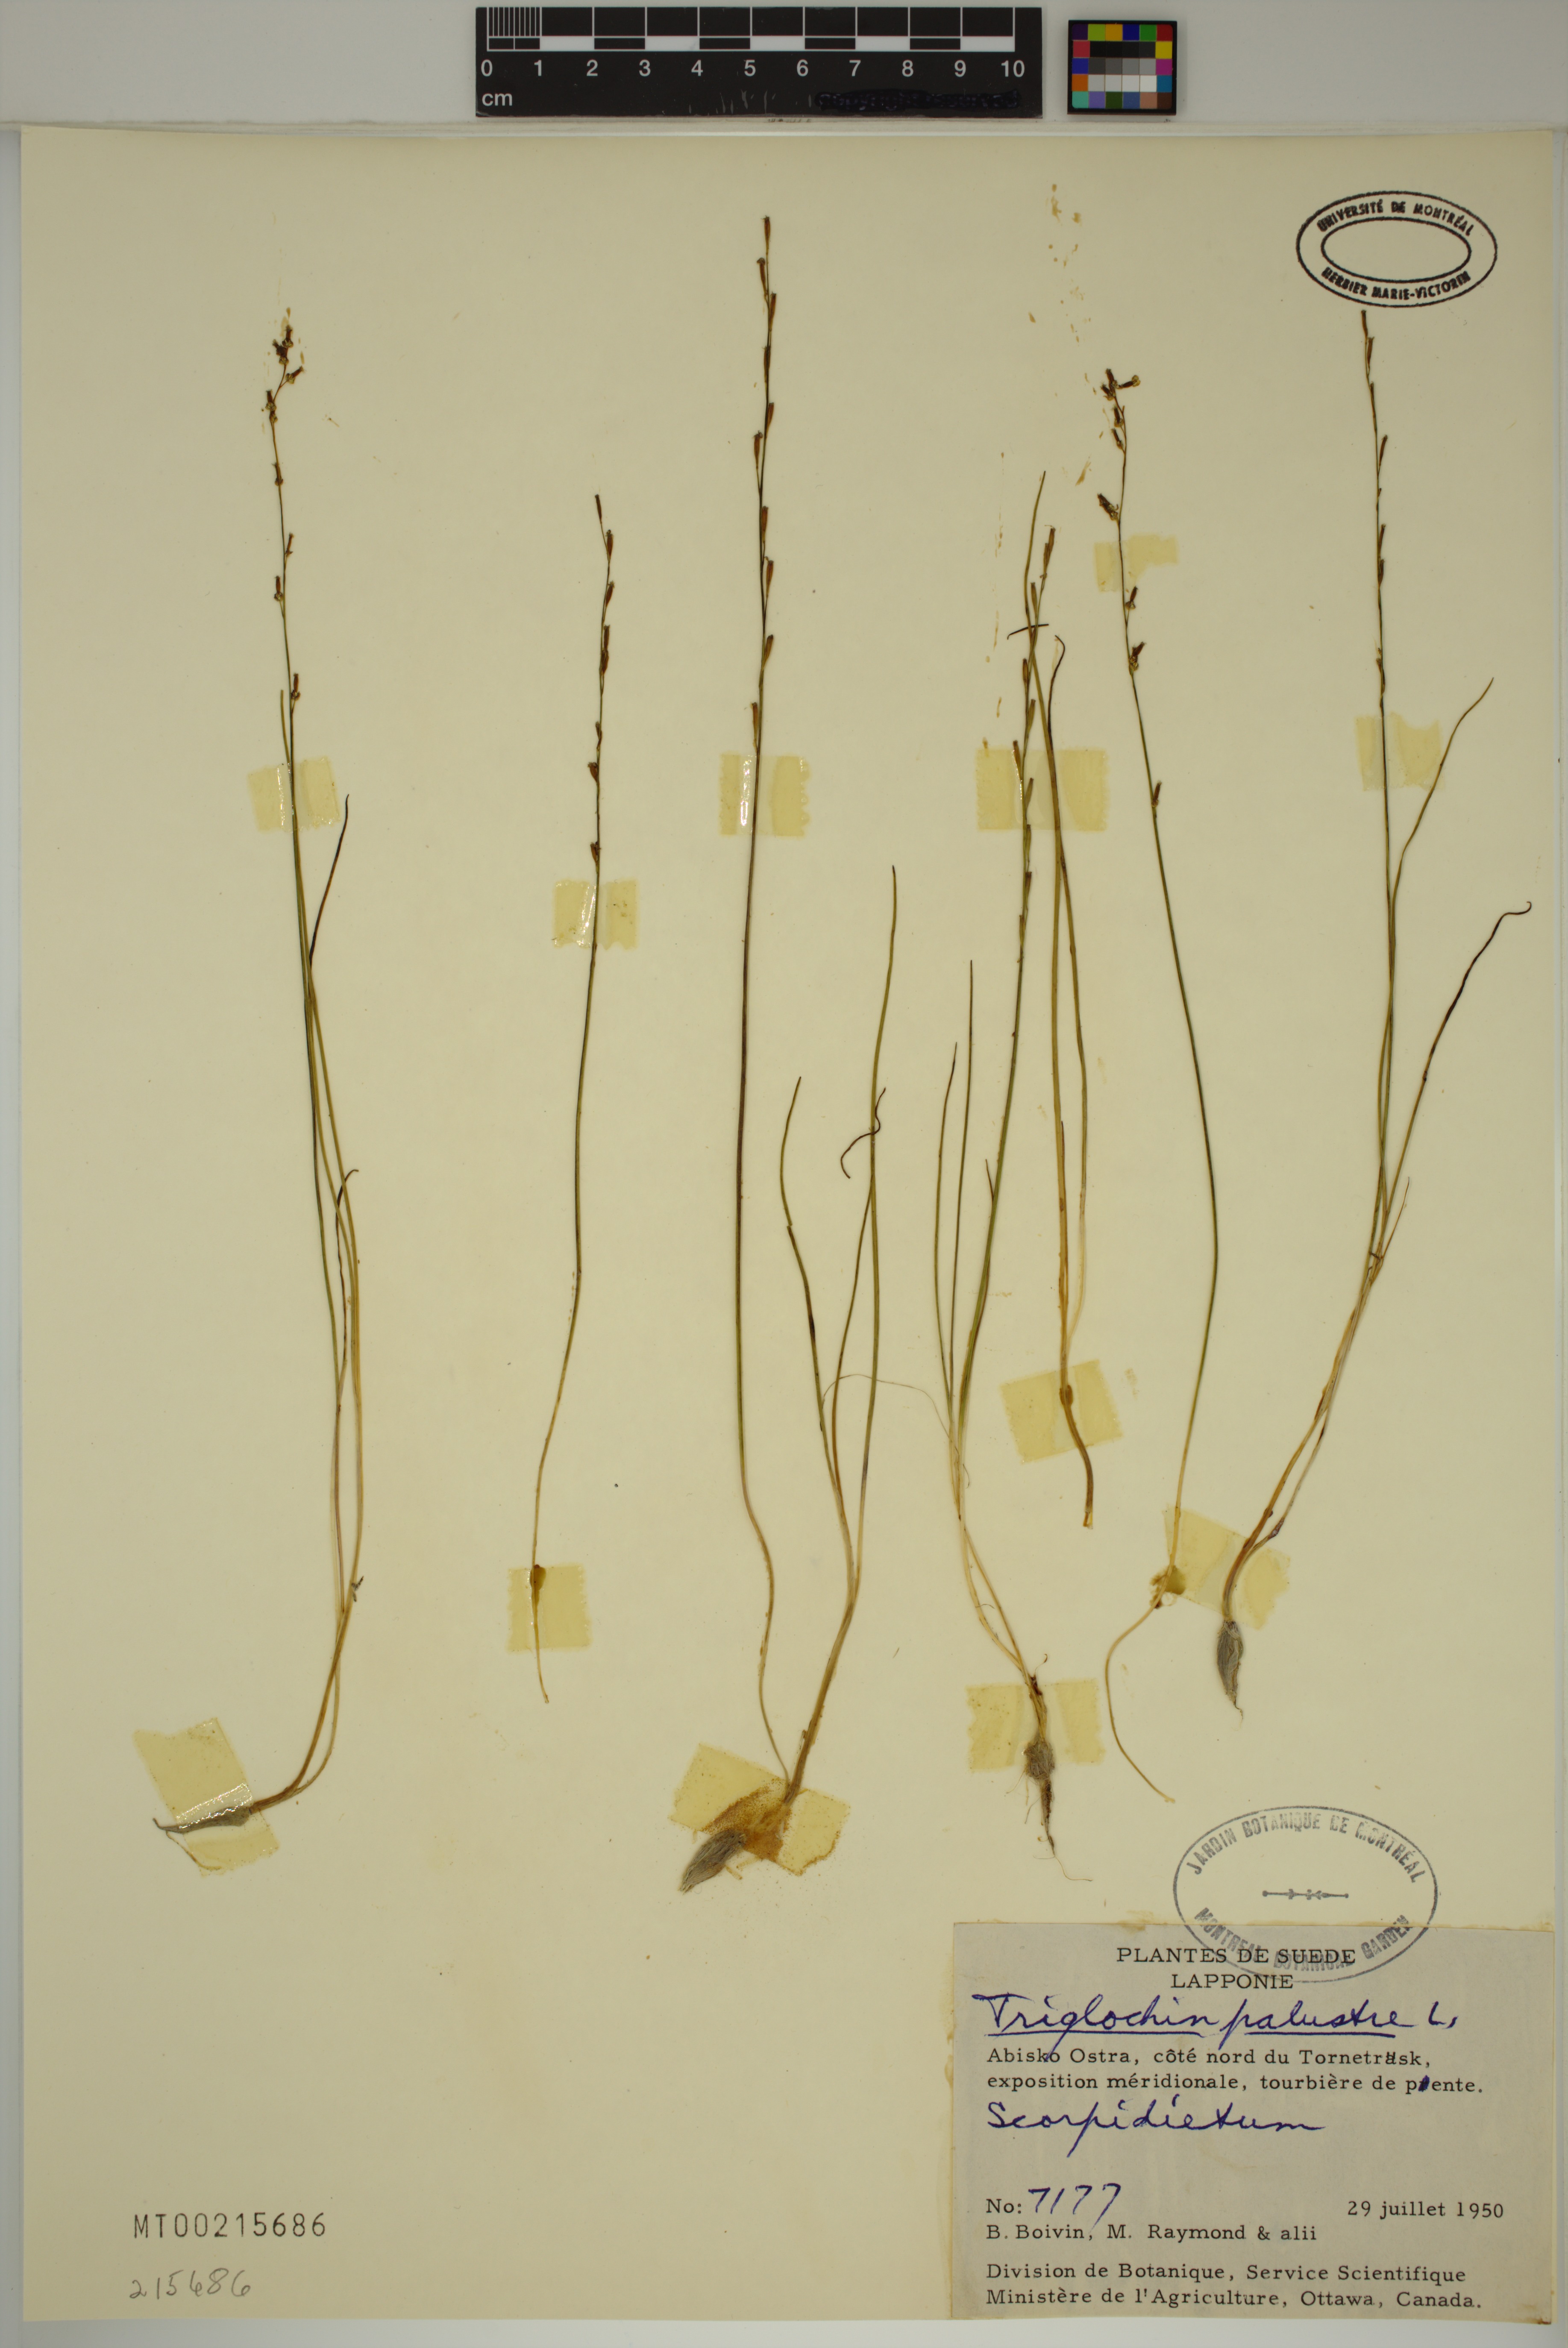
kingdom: Plantae
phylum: Tracheophyta
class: Liliopsida
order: Alismatales
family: Juncaginaceae
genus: Triglochin
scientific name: Triglochin palustris
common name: Marsh arrowgrass
